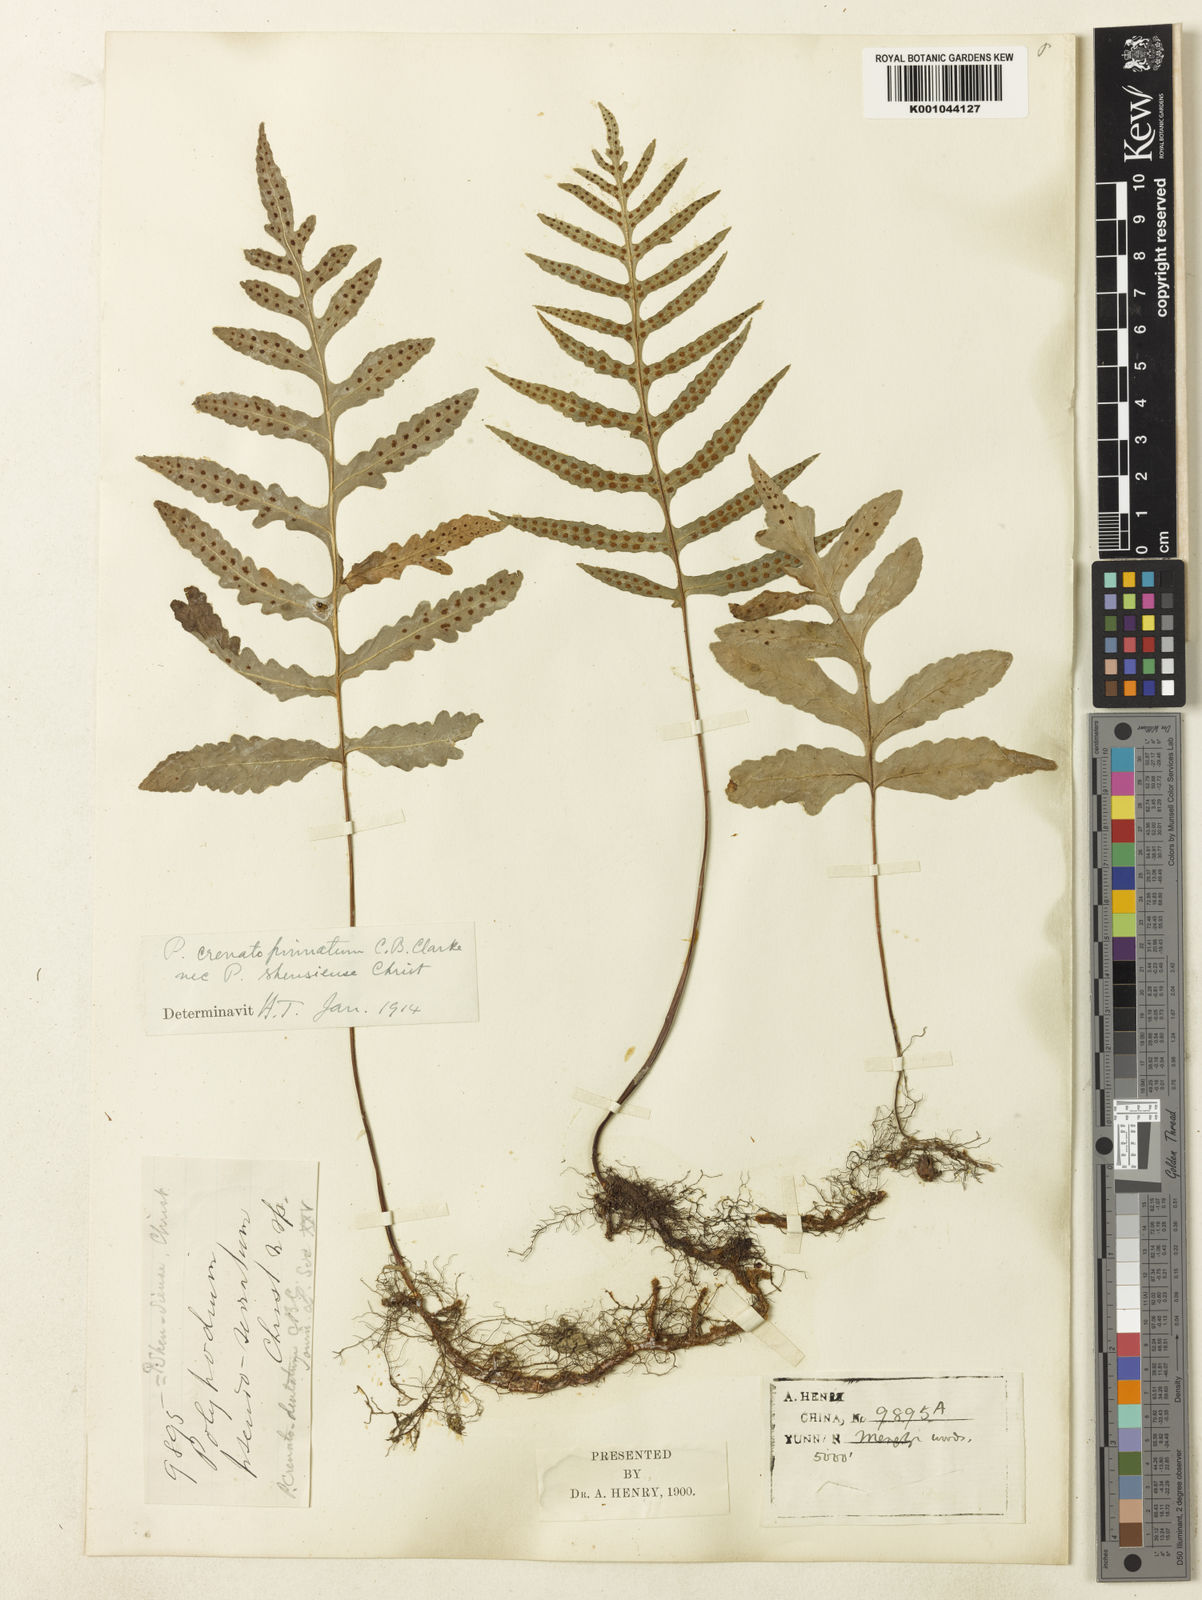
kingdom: Plantae
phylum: Tracheophyta
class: Polypodiopsida
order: Polypodiales
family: Polypodiaceae
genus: Selliguea
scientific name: Selliguea
